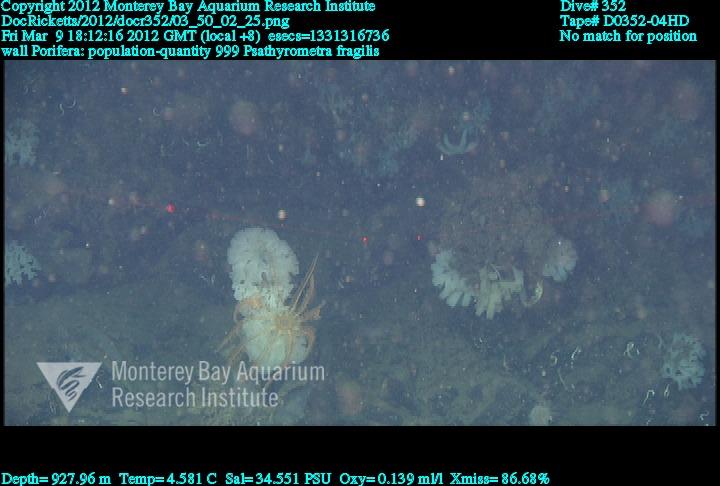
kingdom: Animalia
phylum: Porifera
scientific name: Porifera
